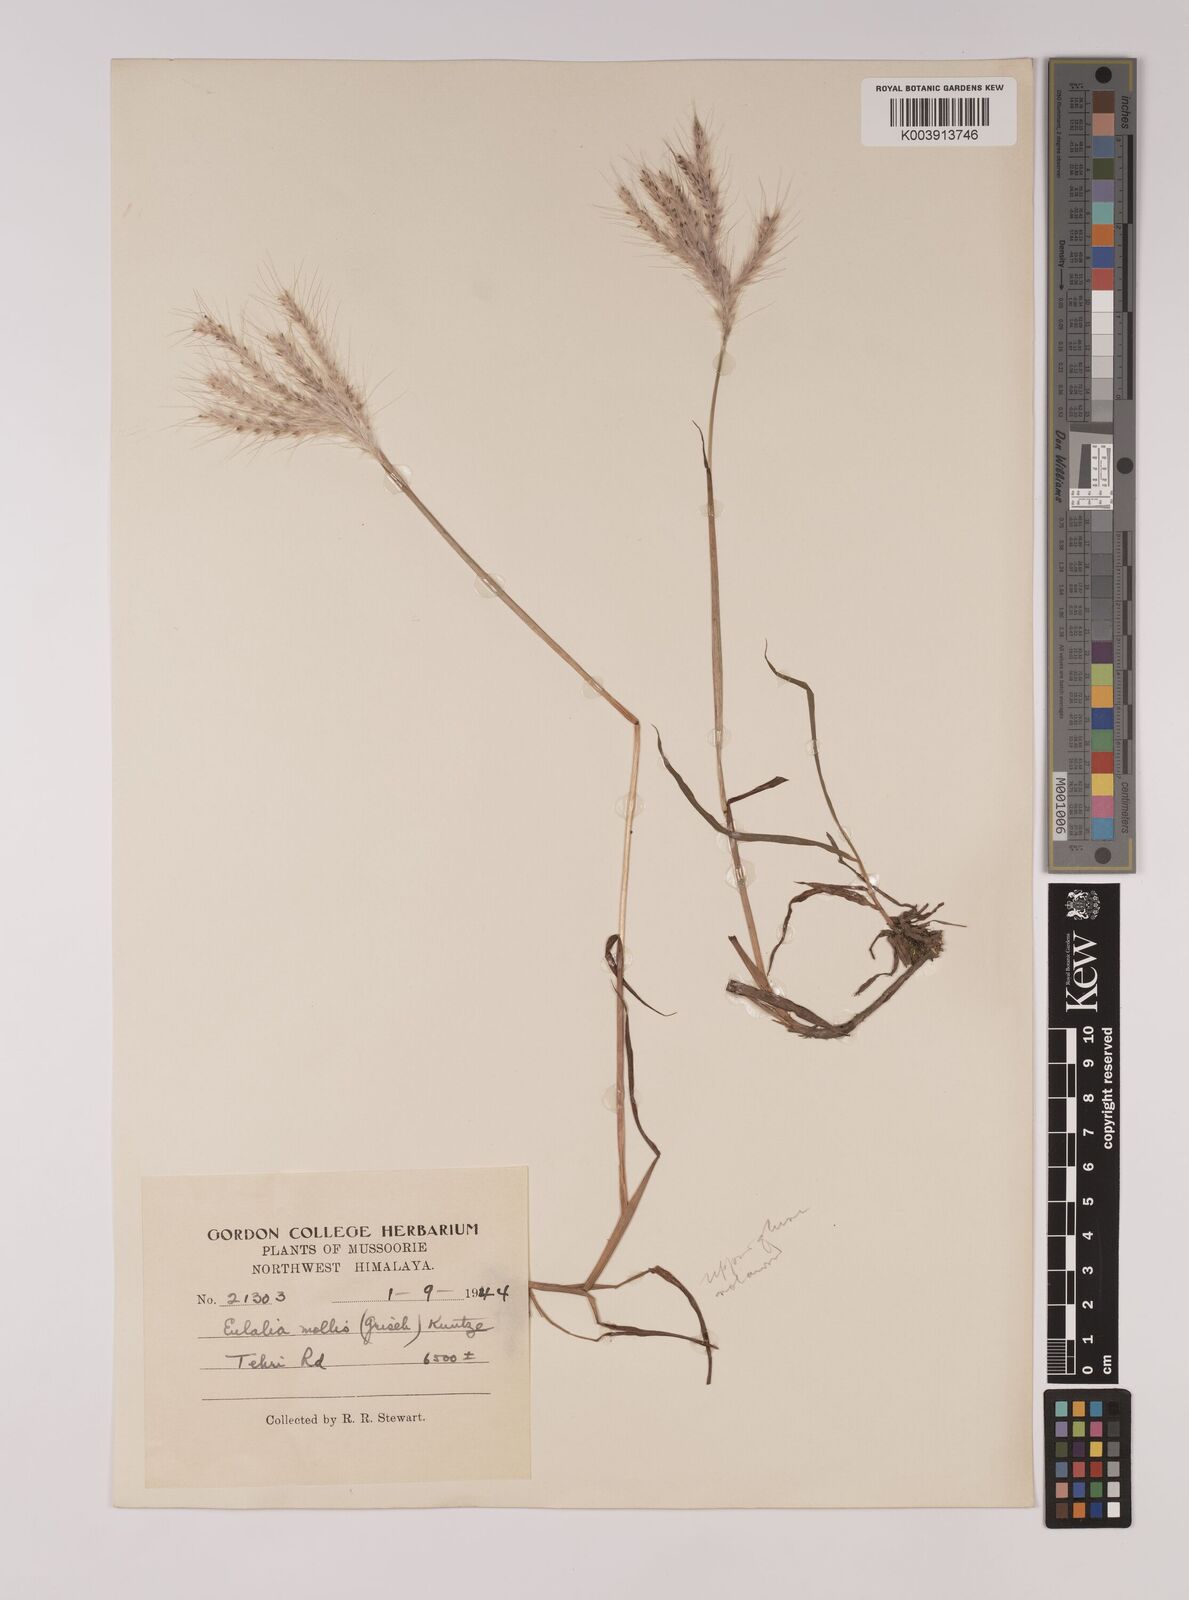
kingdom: Plantae
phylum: Tracheophyta
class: Liliopsida
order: Poales
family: Poaceae
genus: Eulalia
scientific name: Eulalia mollis
